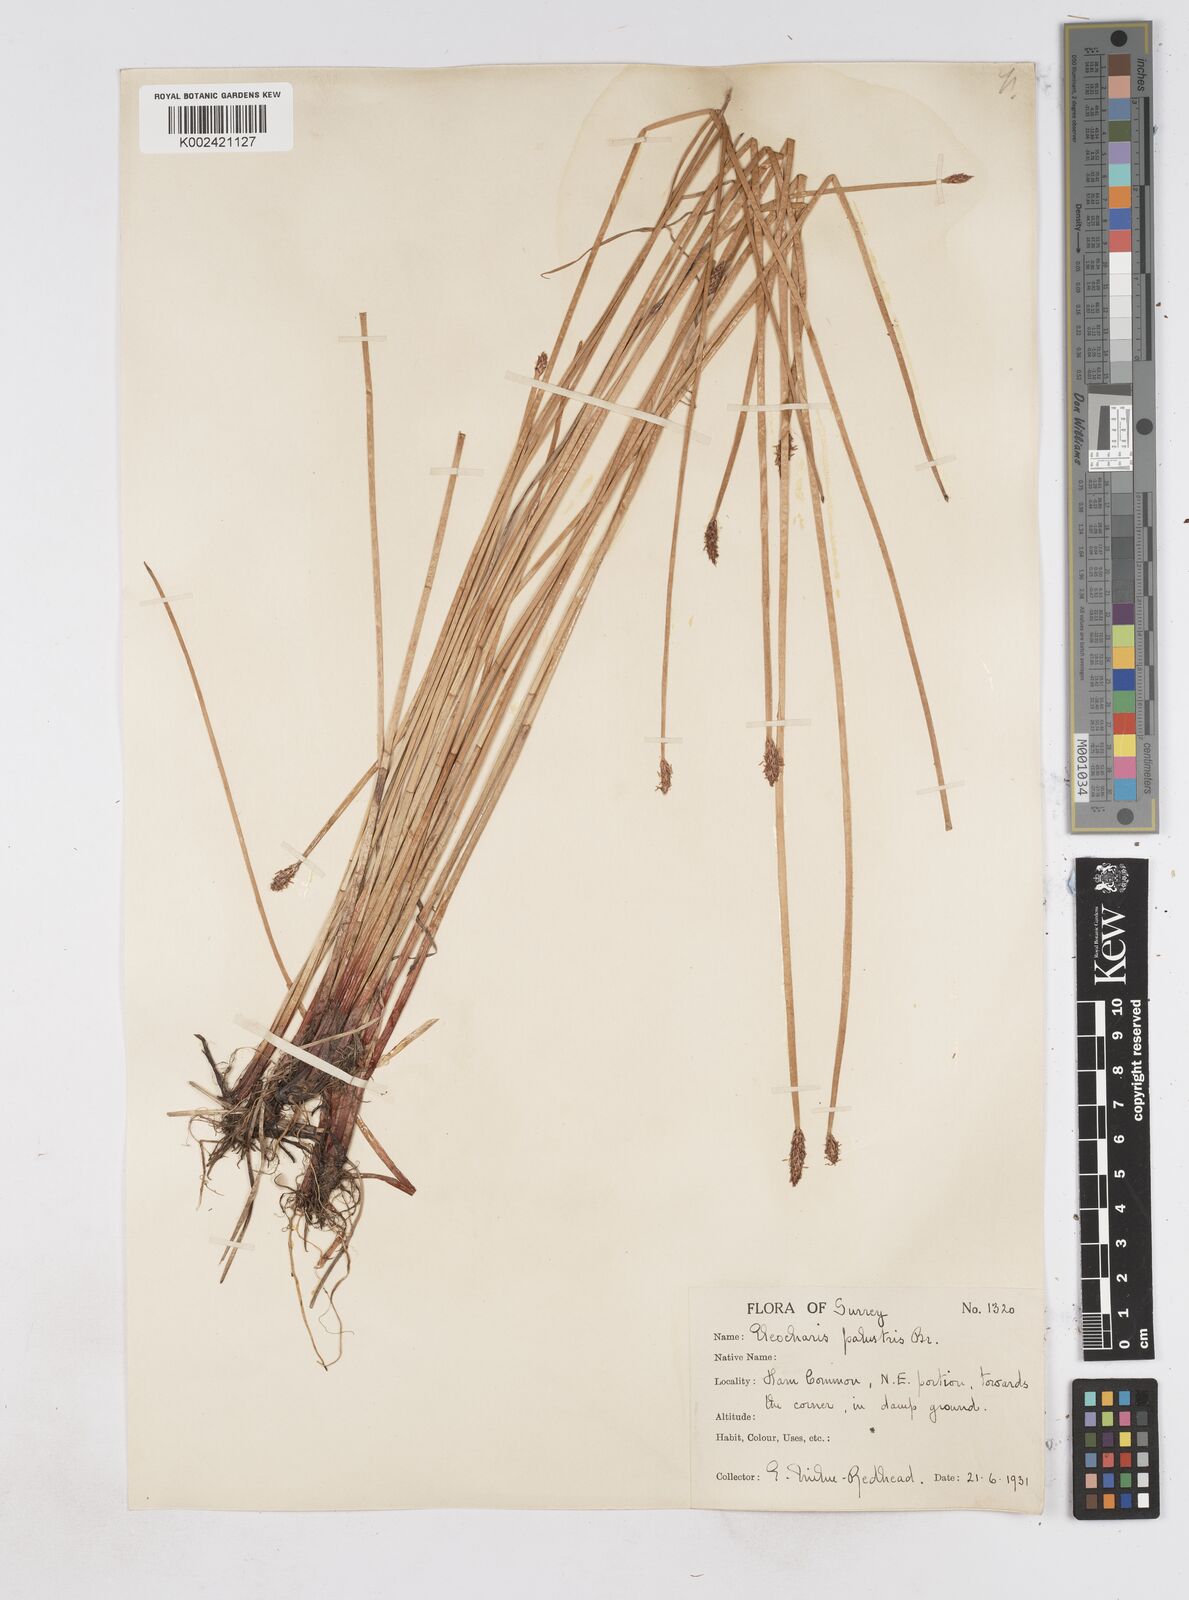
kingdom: Plantae
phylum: Tracheophyta
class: Liliopsida
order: Poales
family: Cyperaceae
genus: Eleocharis
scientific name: Eleocharis palustris
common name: Common spike-rush
